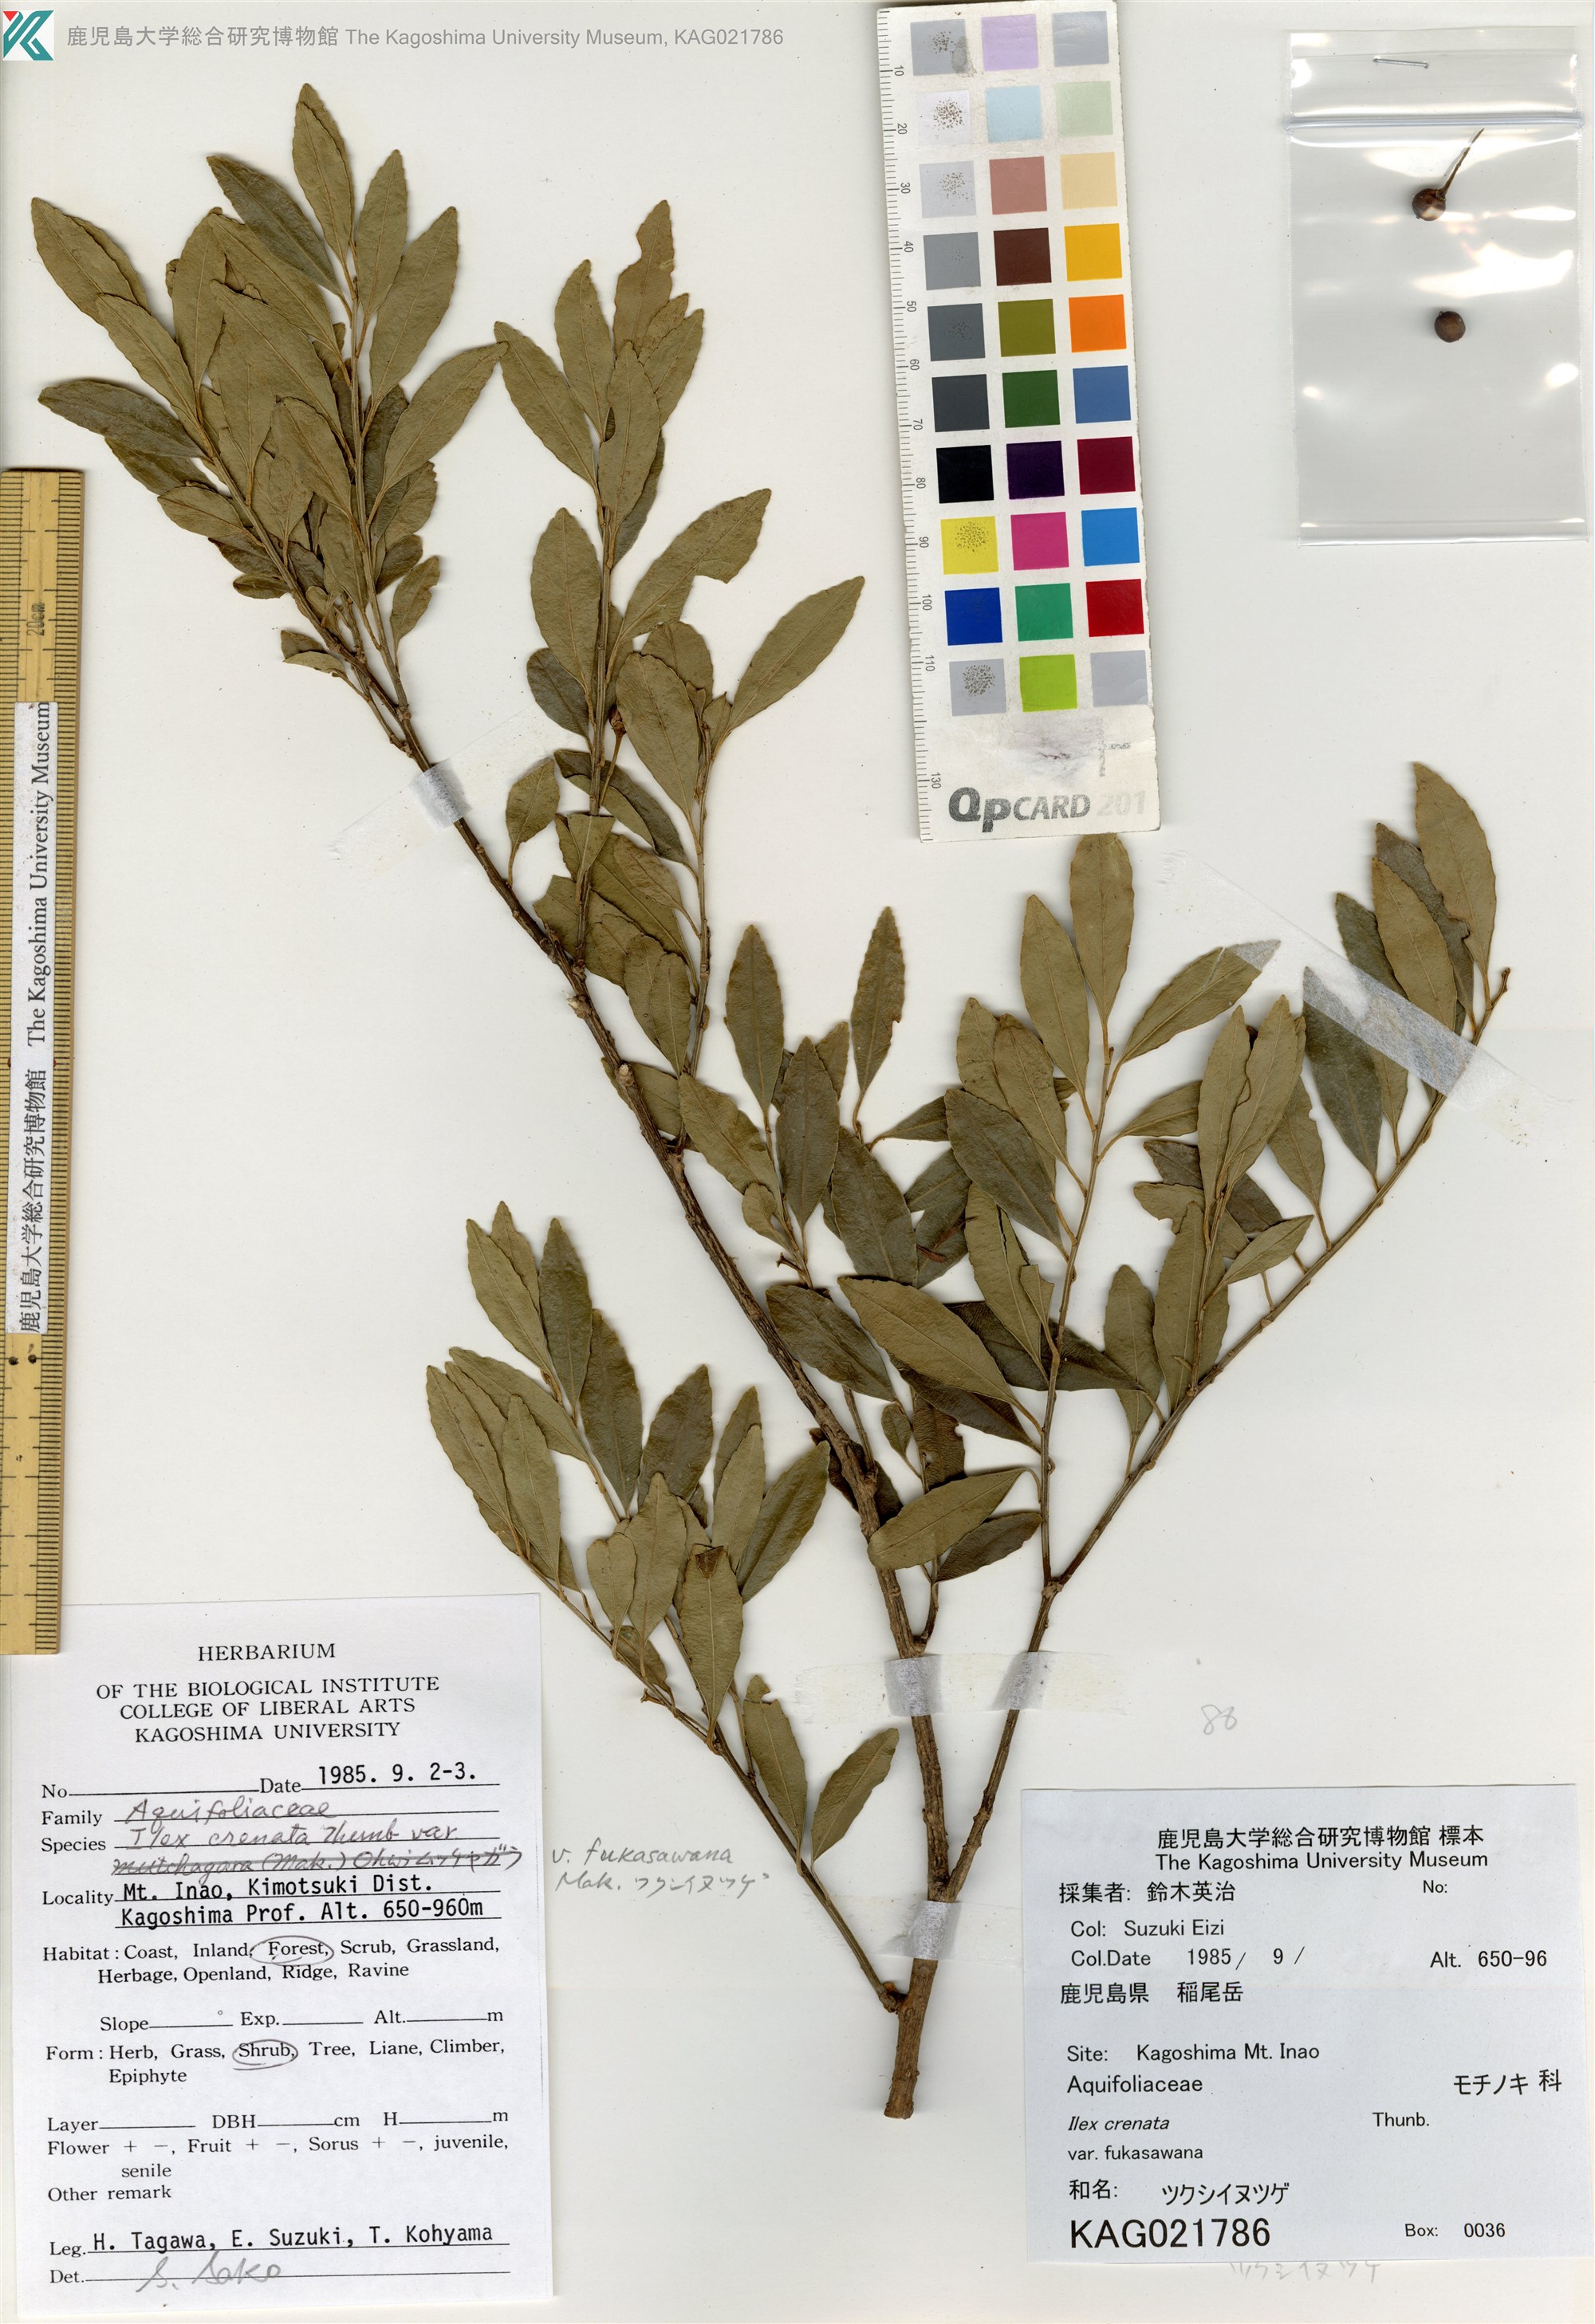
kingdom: Plantae
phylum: Tracheophyta
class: Magnoliopsida
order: Aquifoliales
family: Aquifoliaceae
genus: Ilex
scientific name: Ilex crenata
